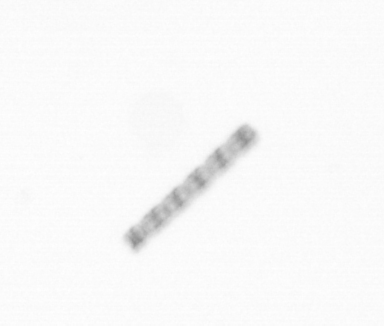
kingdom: Chromista
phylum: Ochrophyta
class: Bacillariophyceae
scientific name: Bacillariophyceae
